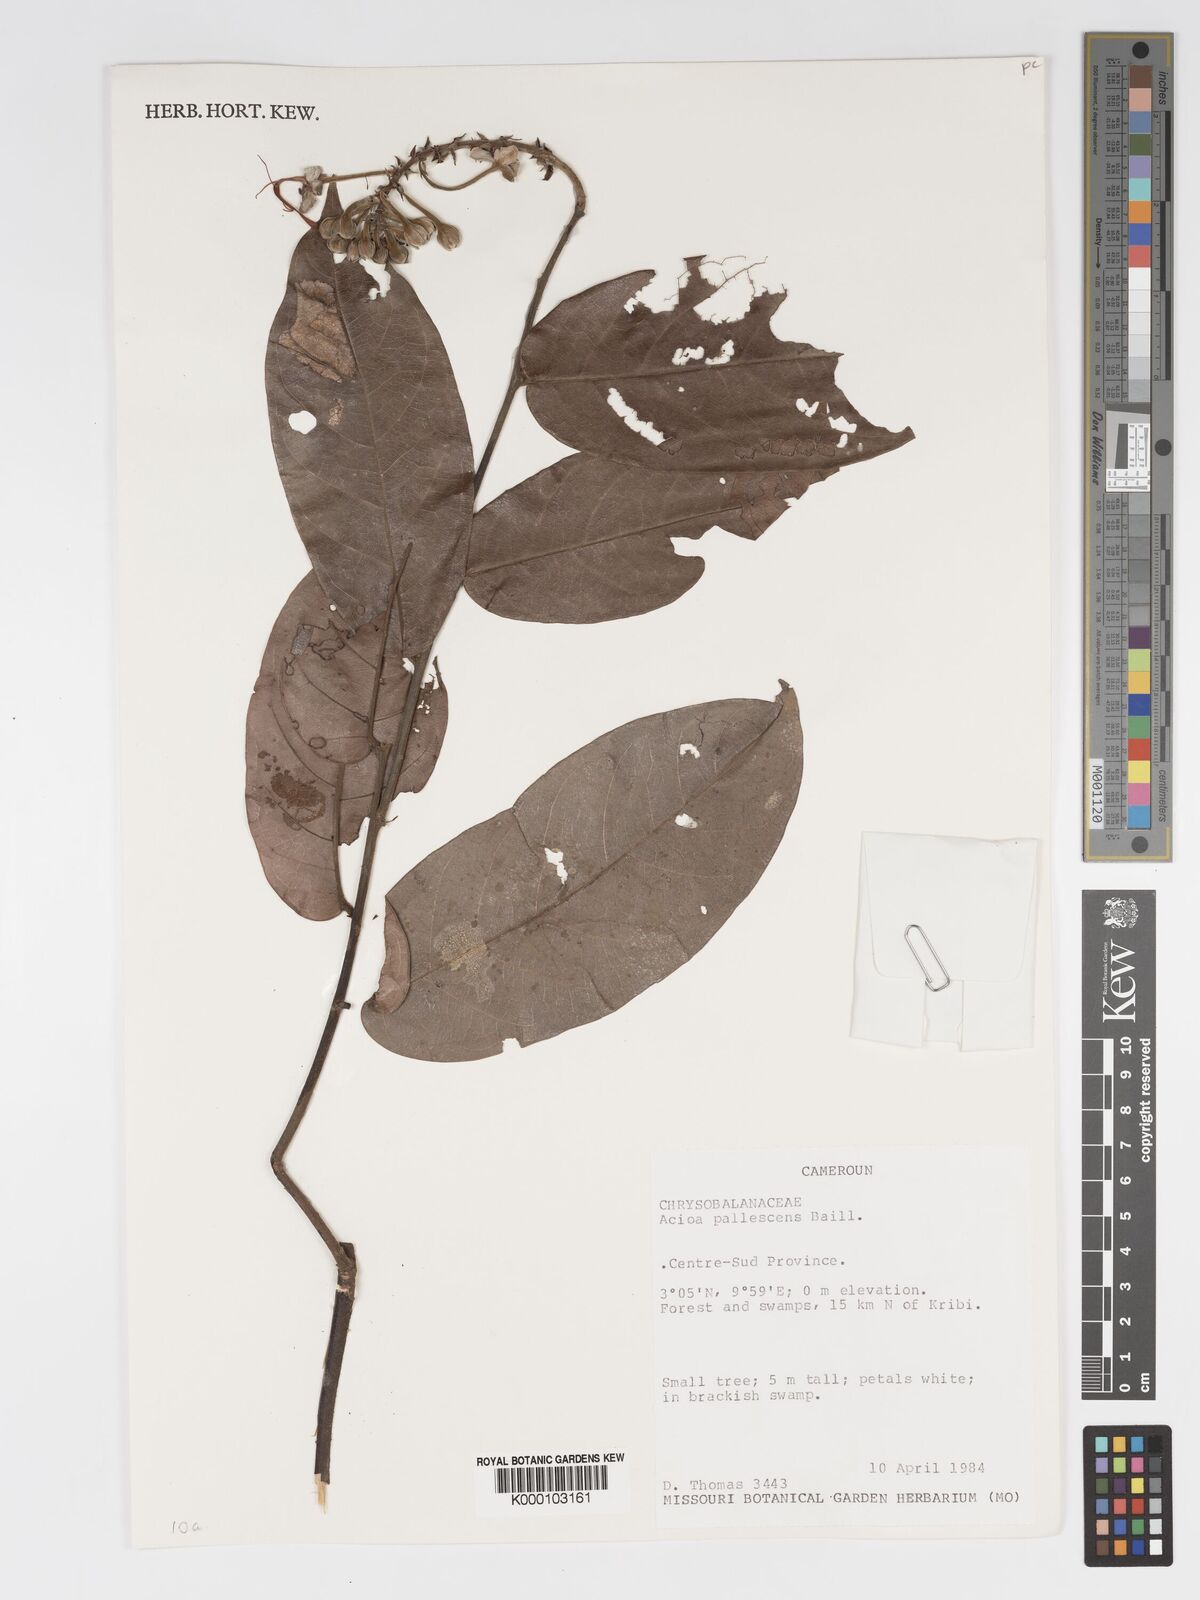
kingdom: Plantae
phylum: Tracheophyta
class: Magnoliopsida
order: Malpighiales
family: Chrysobalanaceae
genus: Dactyladenia
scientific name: Dactyladenia pallescens
